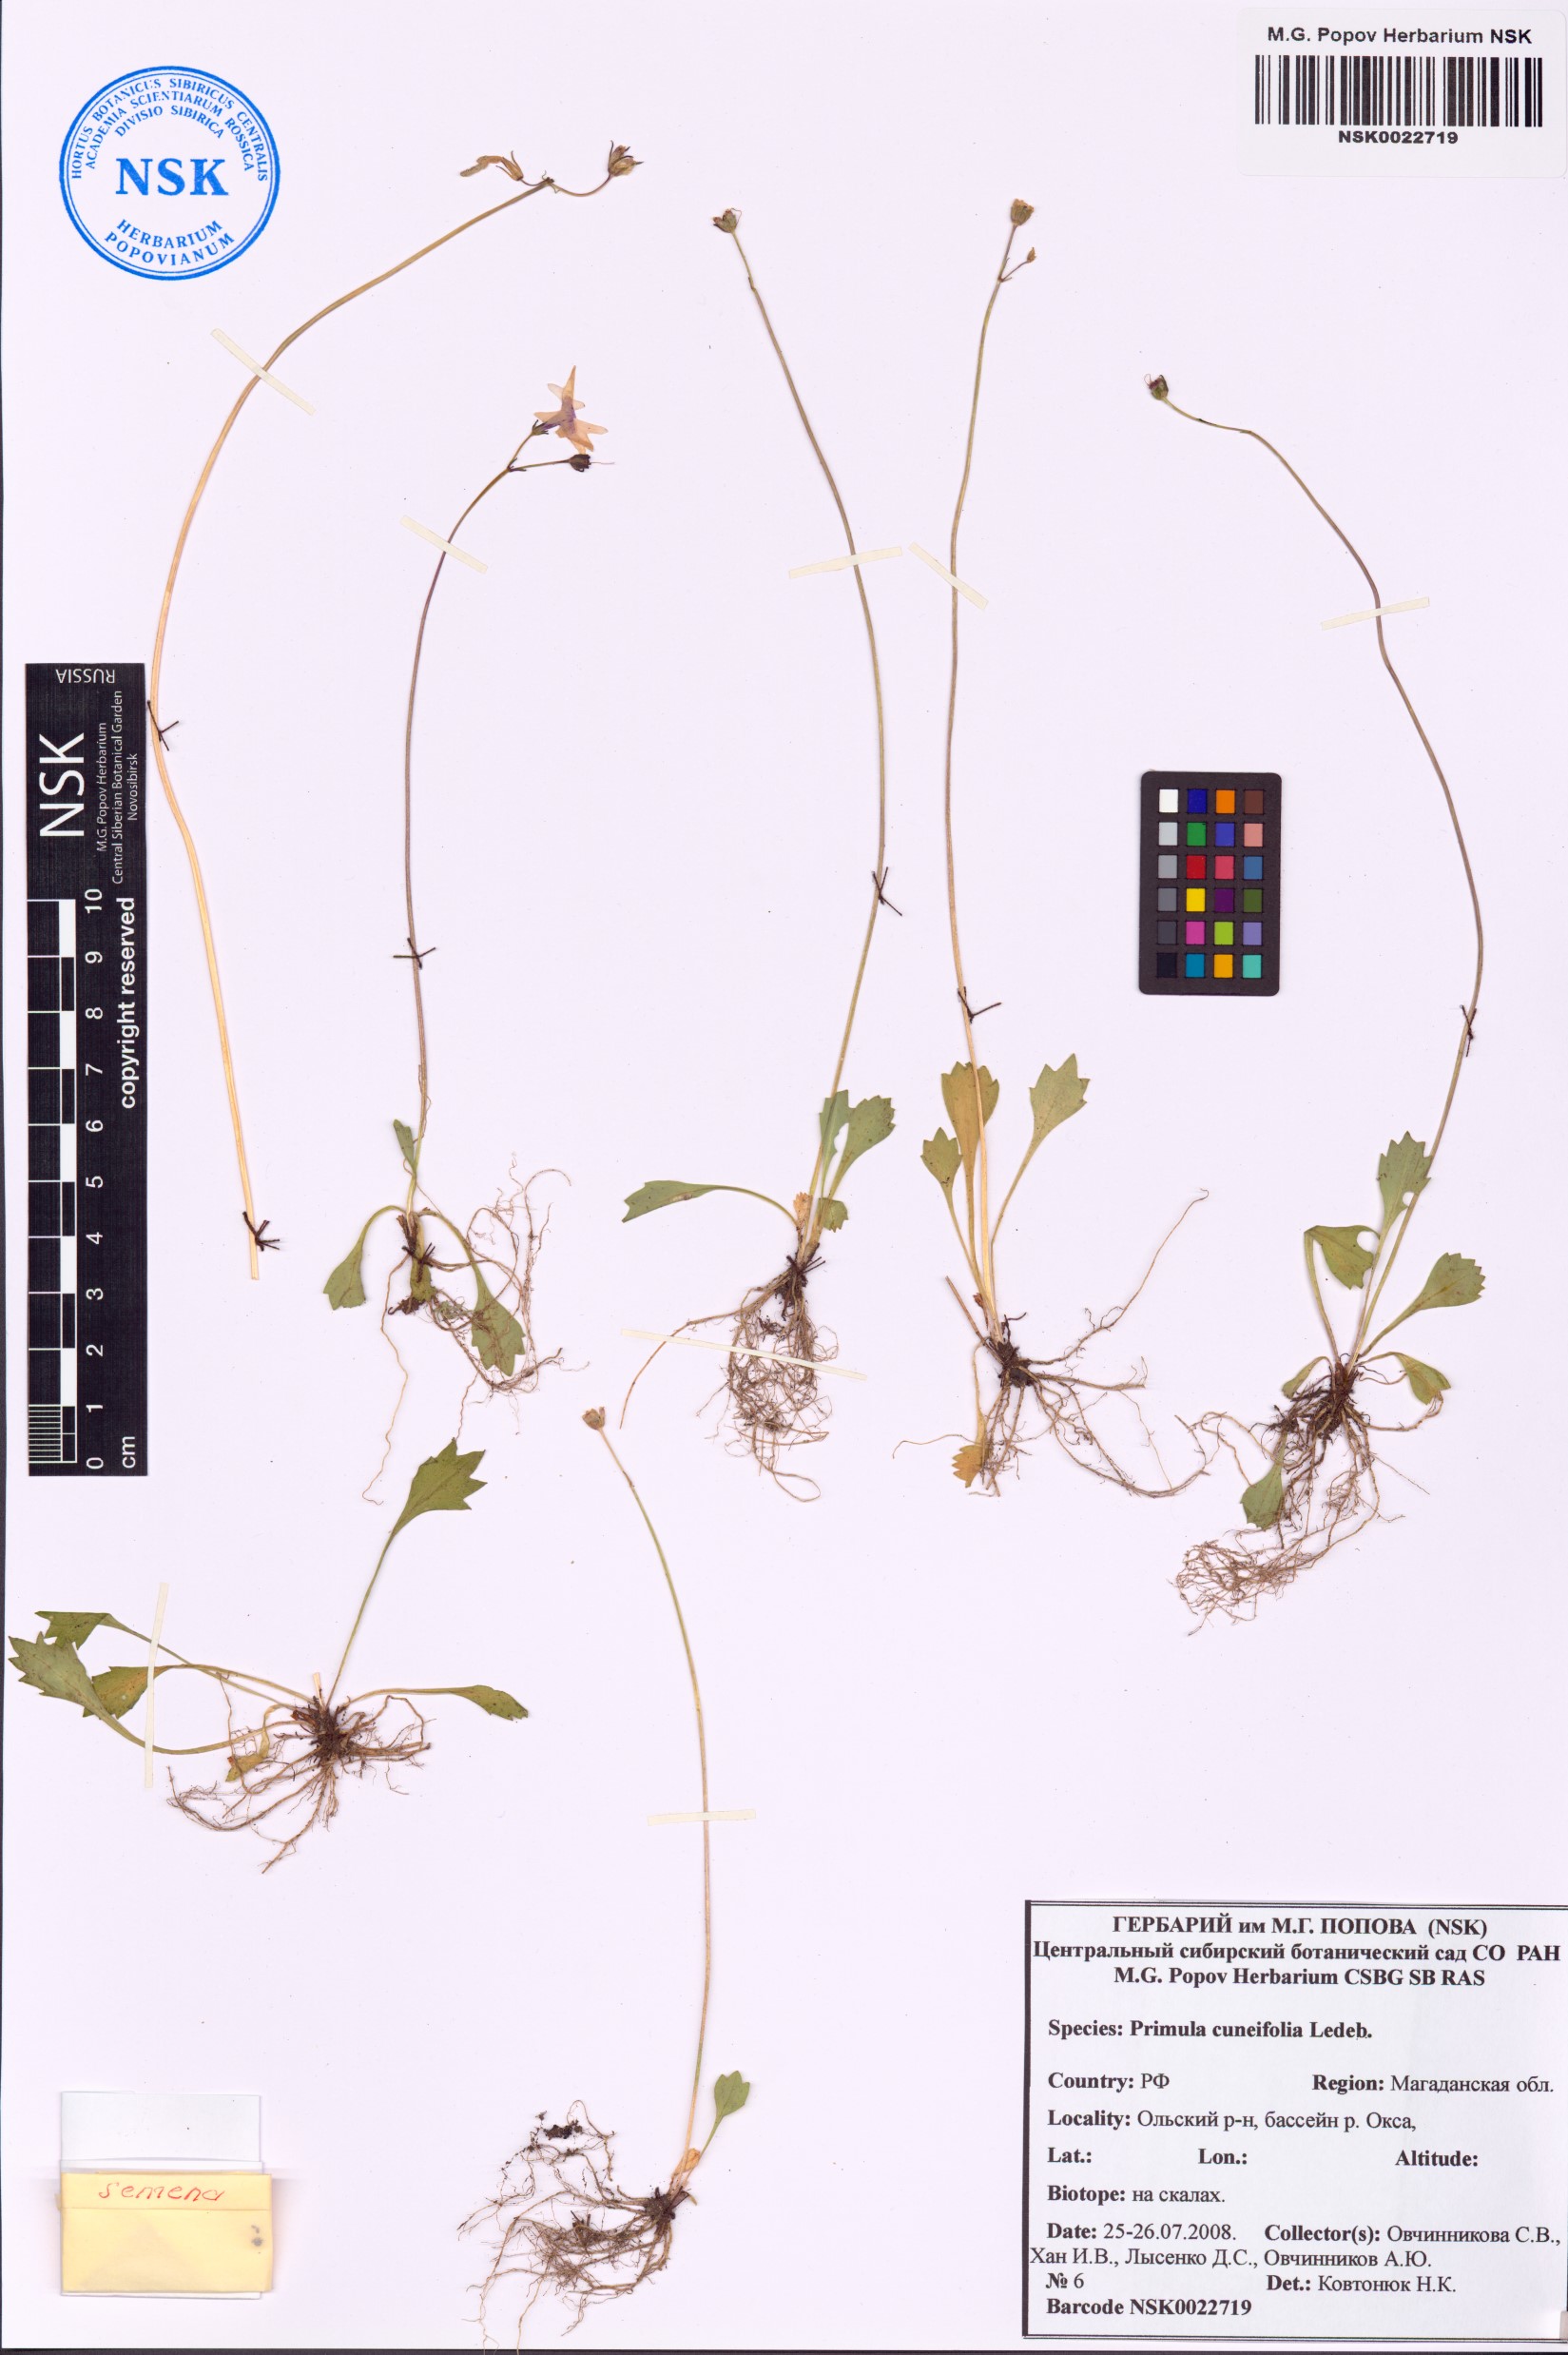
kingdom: Plantae
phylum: Tracheophyta
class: Magnoliopsida
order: Ericales
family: Primulaceae
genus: Primula
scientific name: Primula cuneifolia
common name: Wedge-leaved primrose
